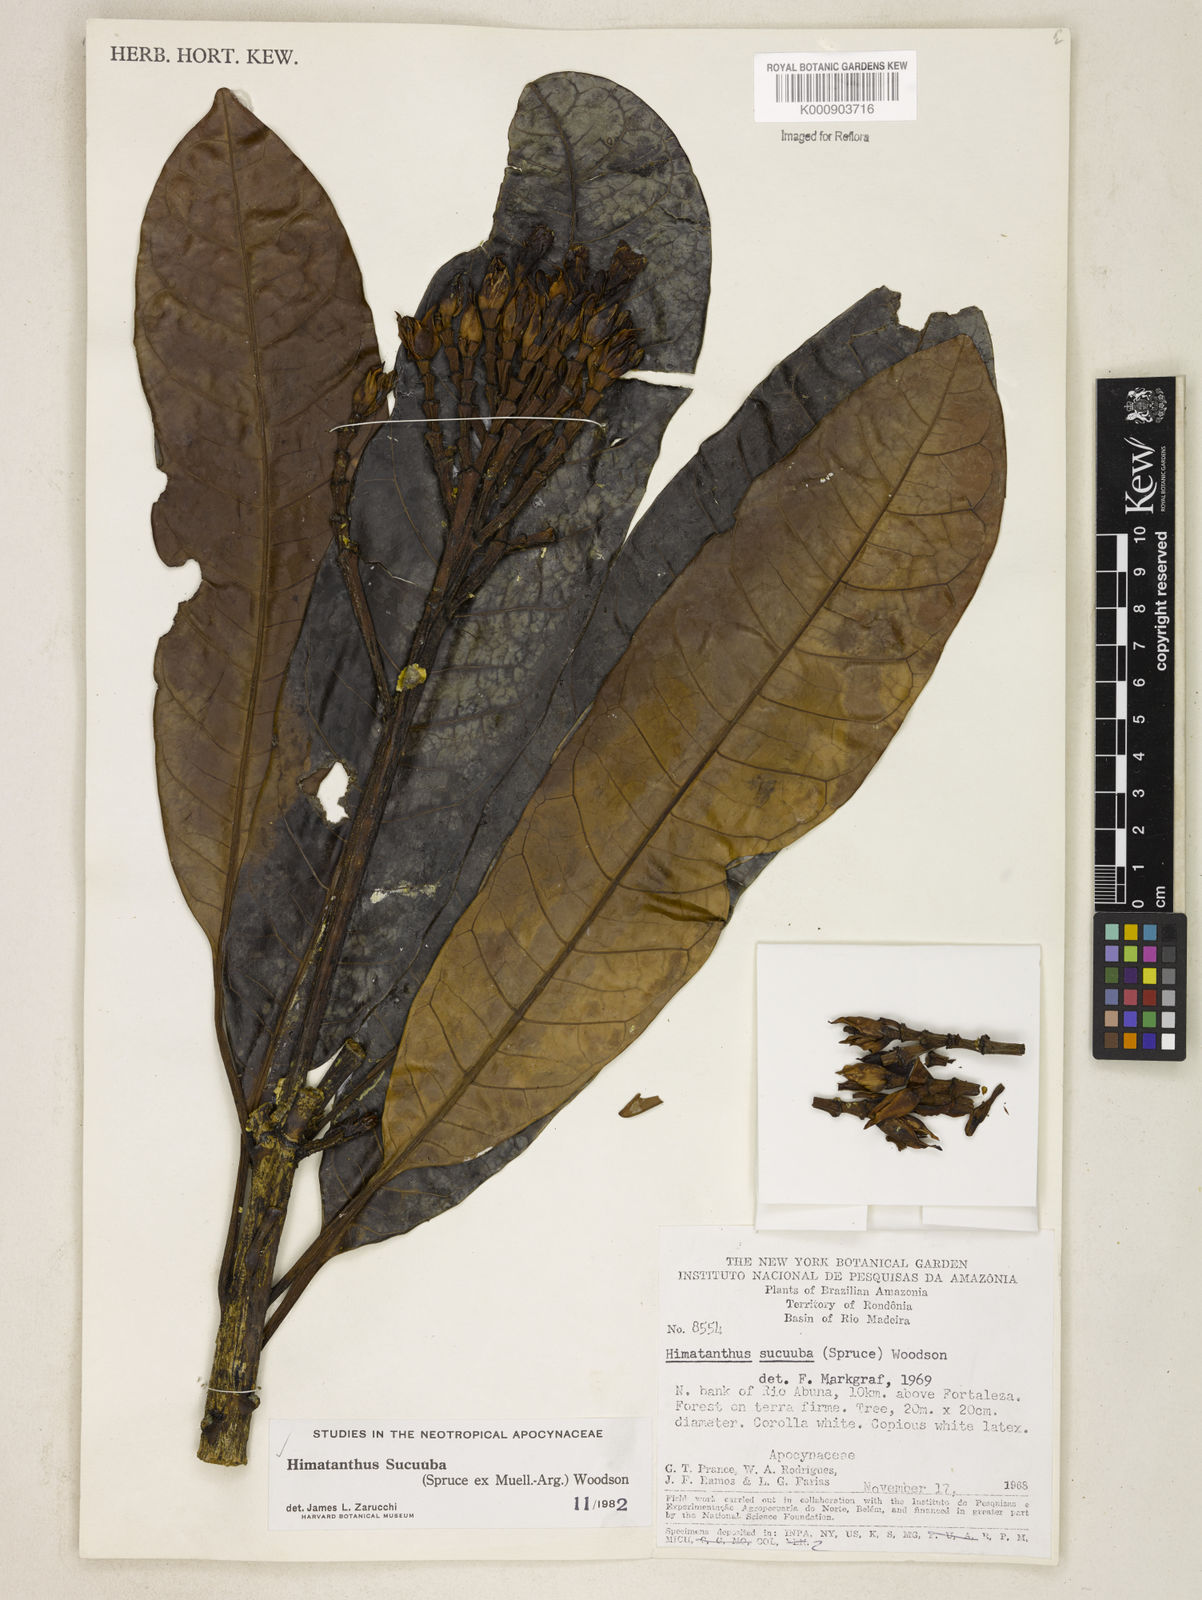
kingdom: Plantae
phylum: Tracheophyta
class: Magnoliopsida
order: Gentianales
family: Apocynaceae
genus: Himatanthus
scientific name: Himatanthus articulatus
